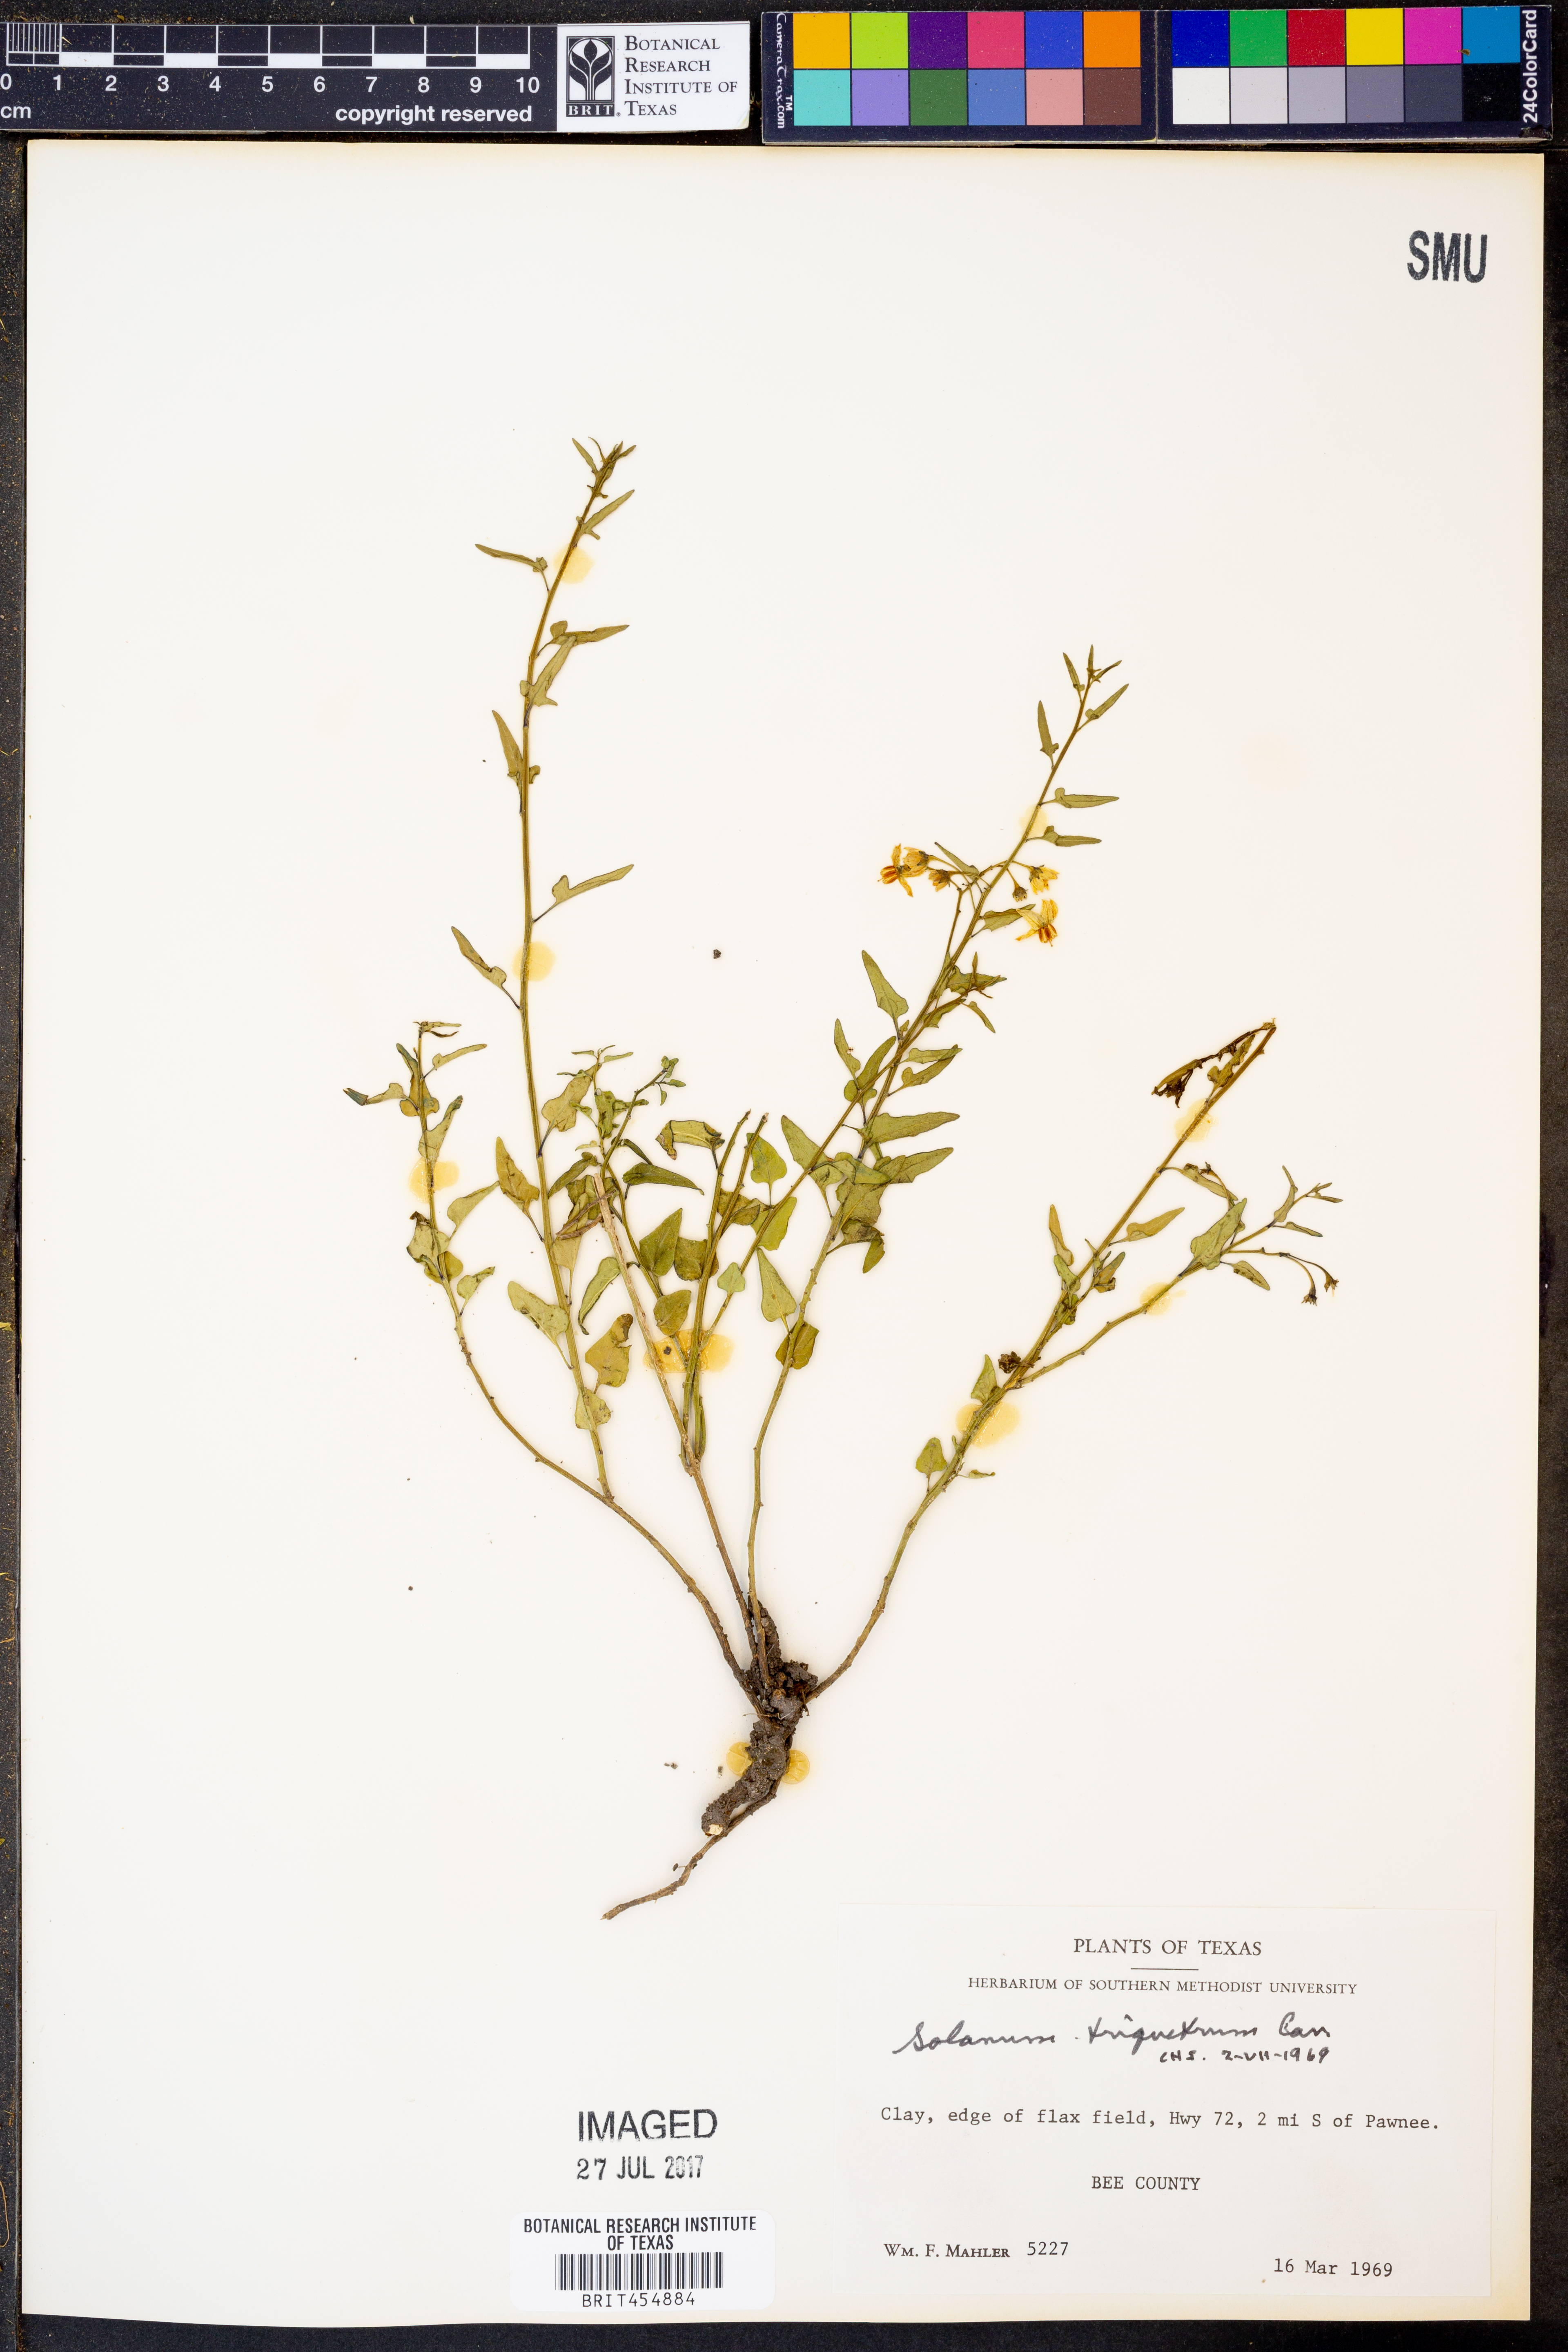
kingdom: Plantae
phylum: Tracheophyta
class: Magnoliopsida
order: Solanales
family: Solanaceae
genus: Solanum
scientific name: Solanum triquetrum
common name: Texas nightshade
